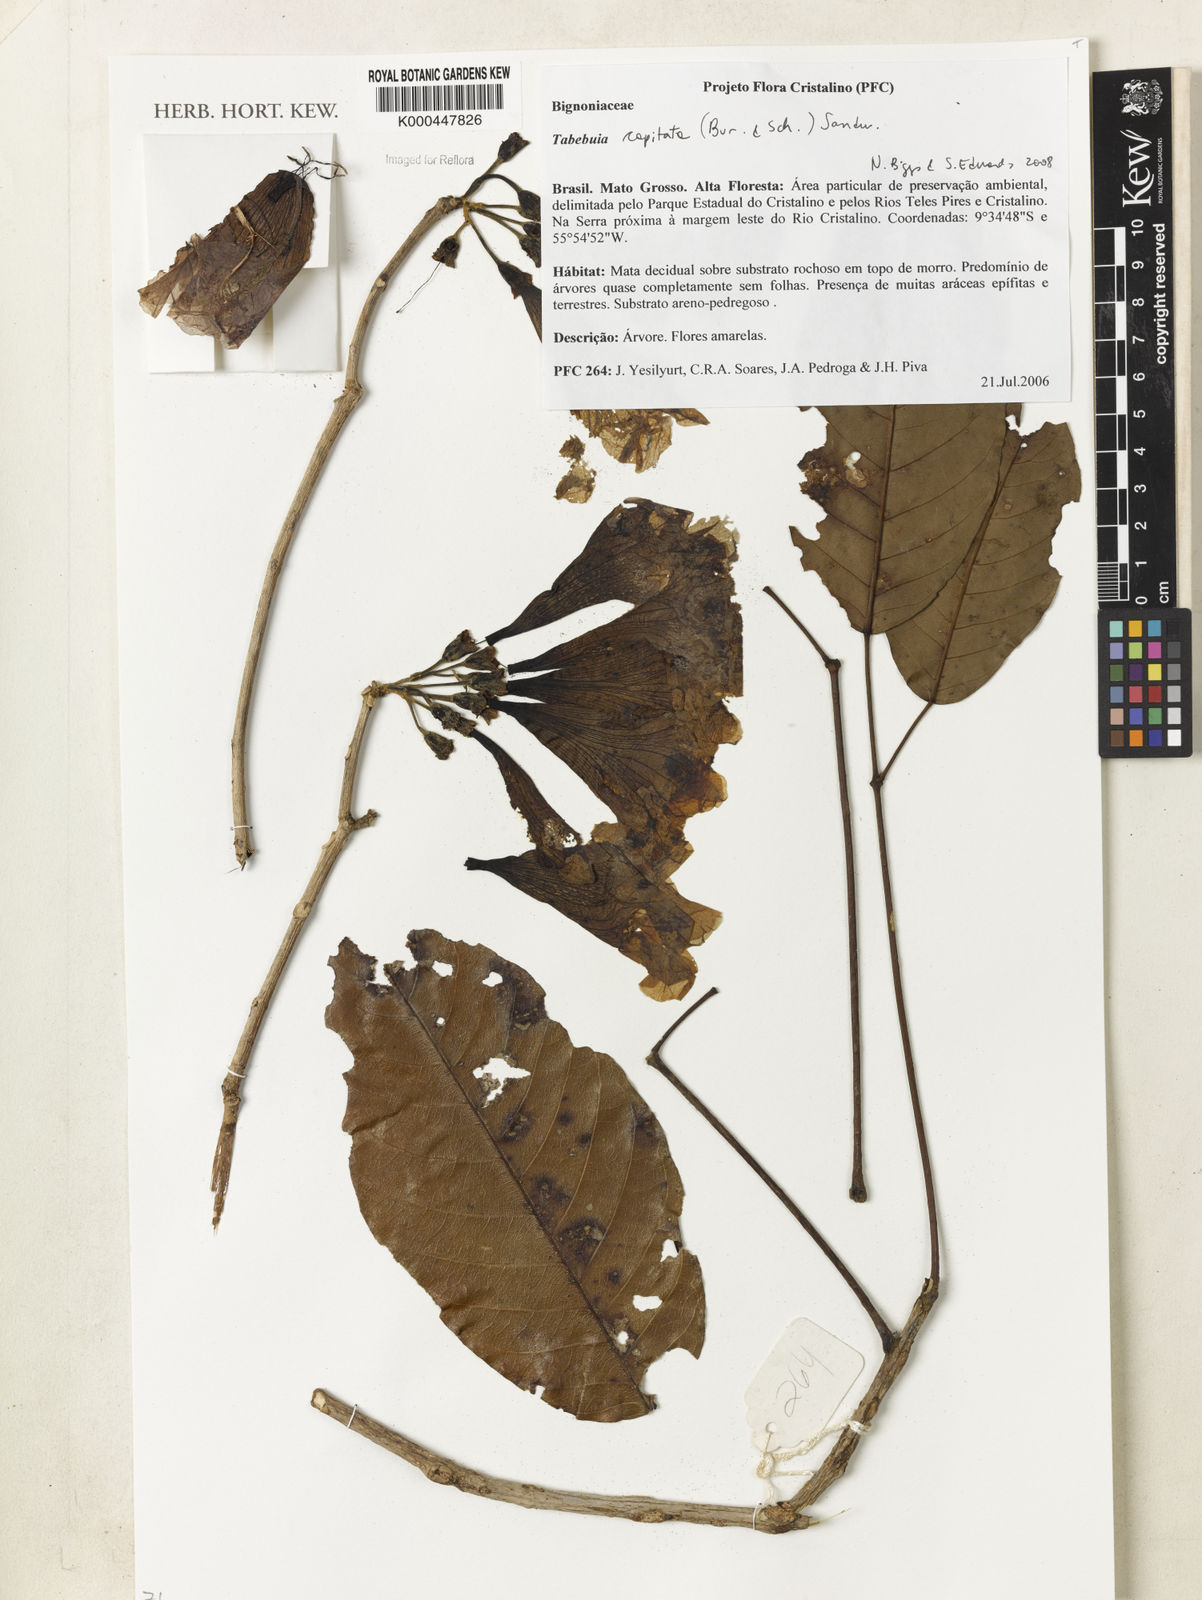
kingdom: Plantae
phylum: Tracheophyta
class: Magnoliopsida
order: Lamiales
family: Bignoniaceae
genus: Handroanthus
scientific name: Handroanthus capitatus
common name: Trumpet trees
